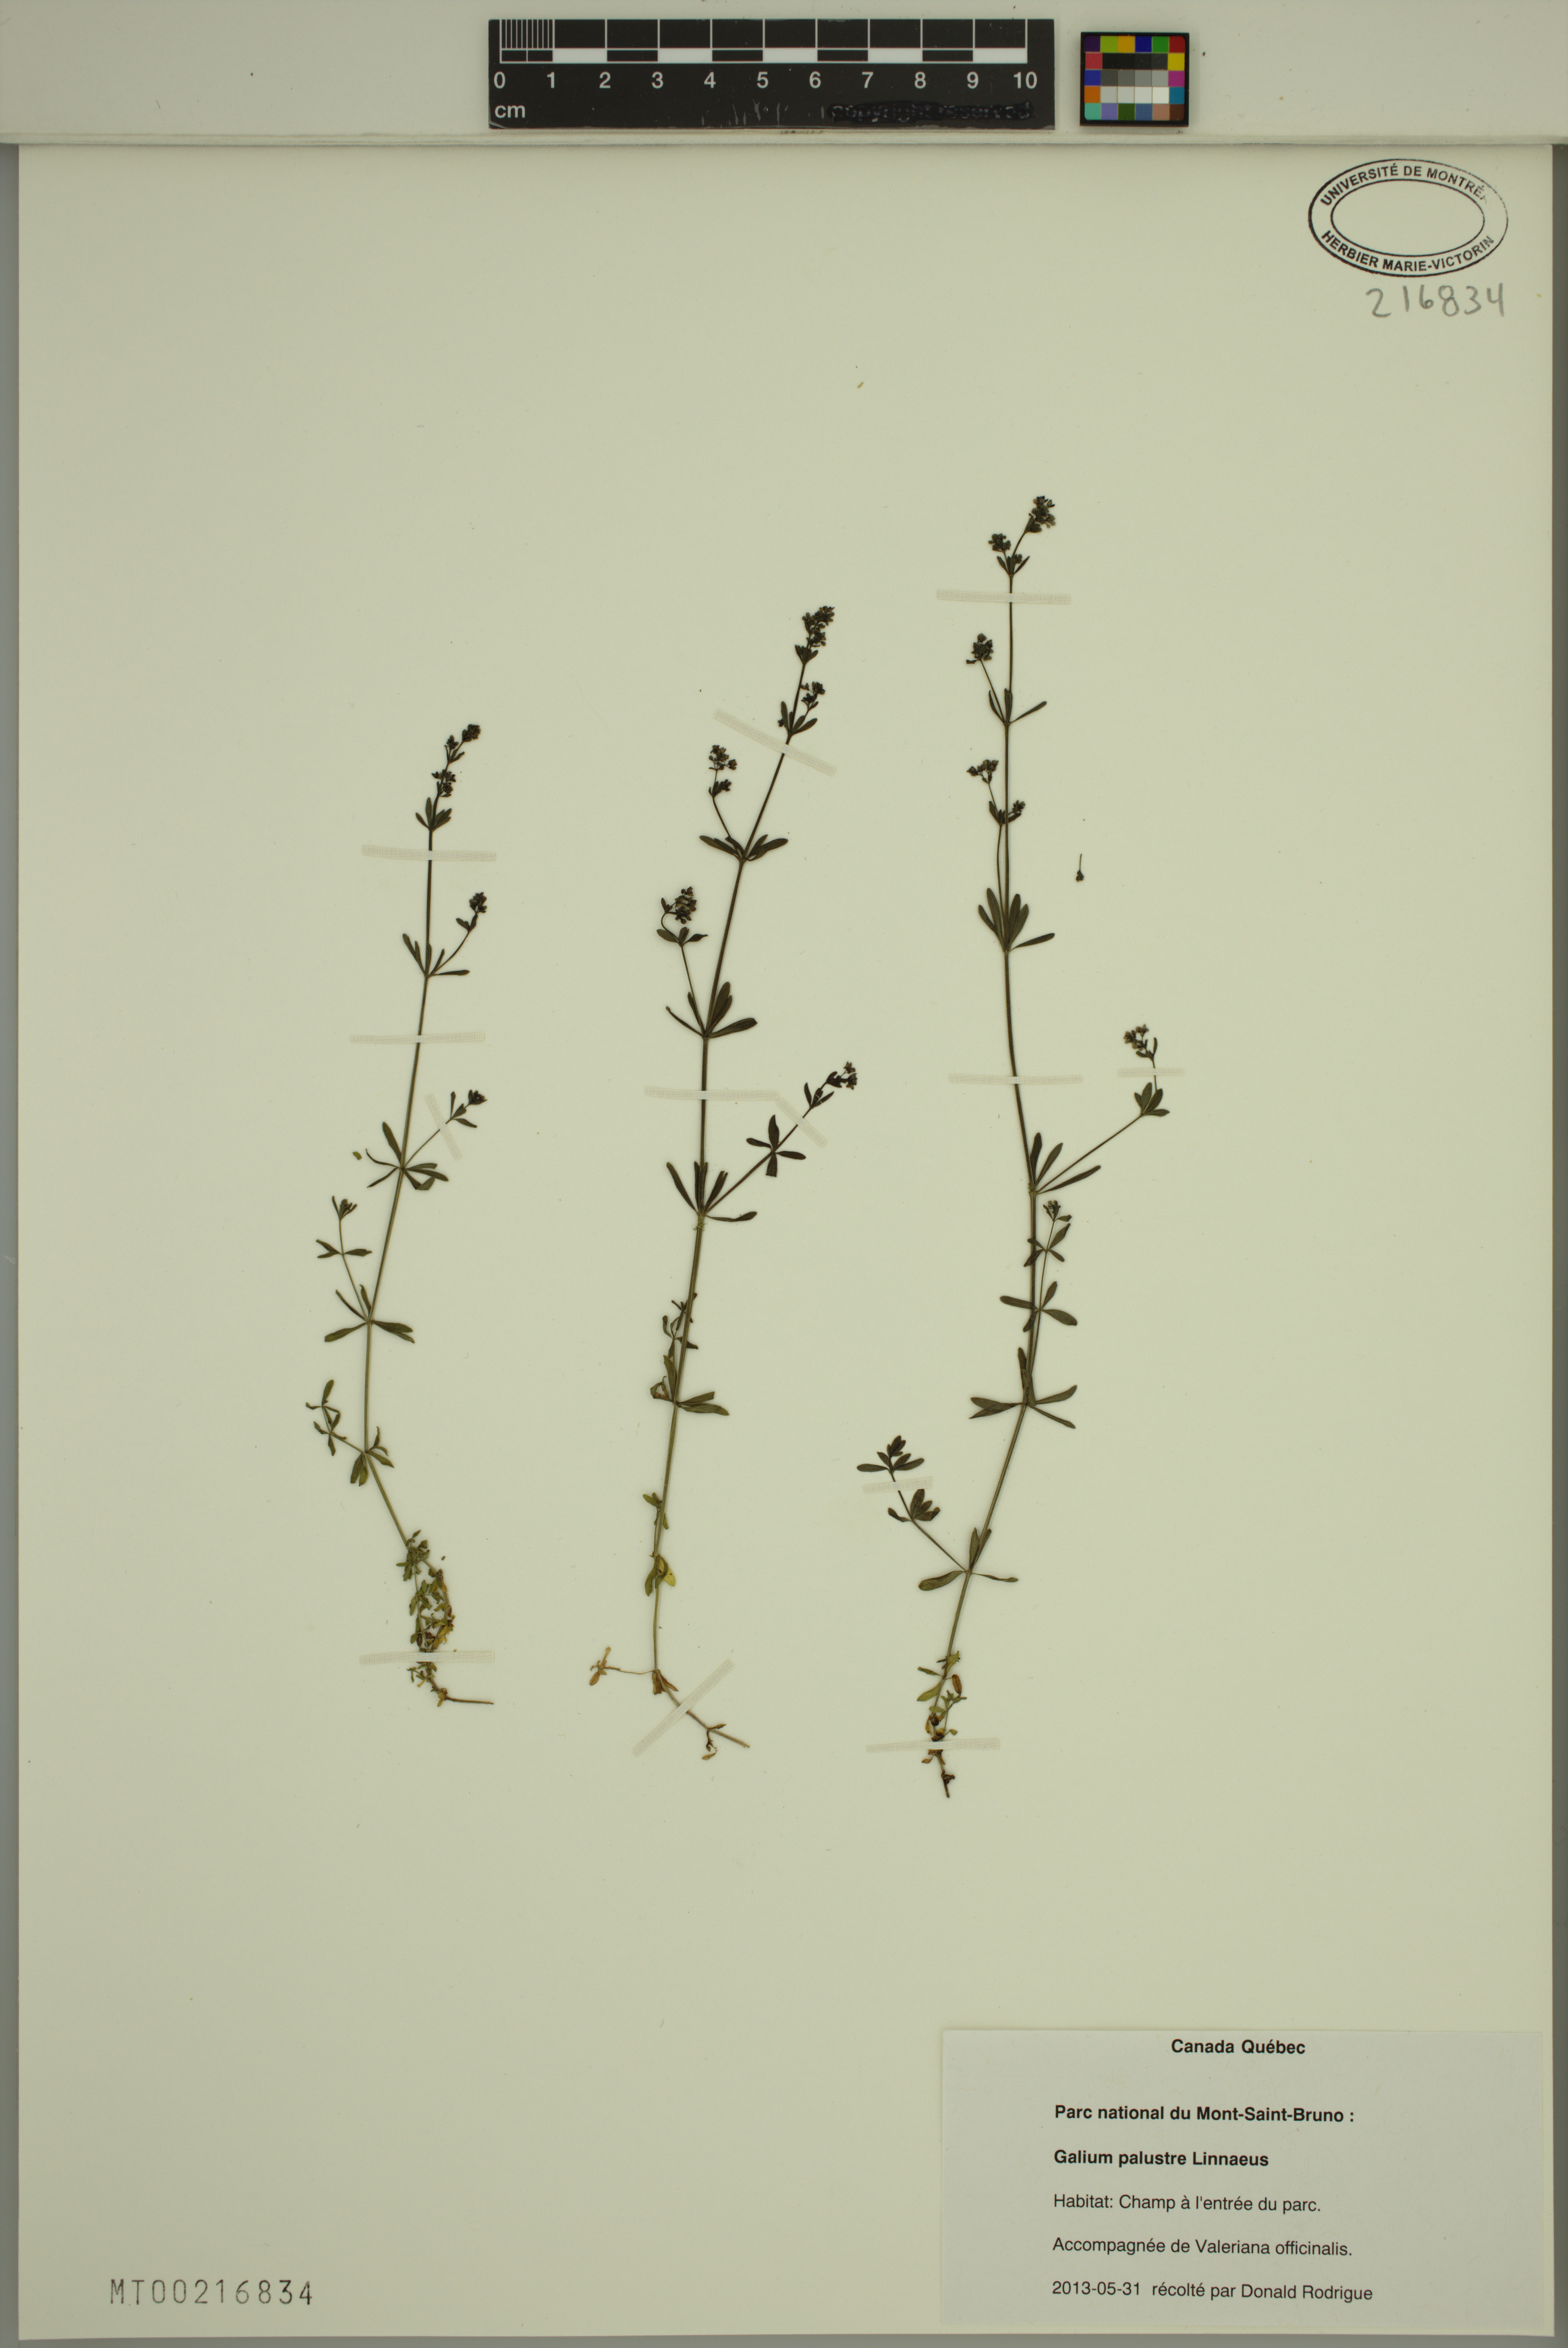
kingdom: Plantae
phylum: Tracheophyta
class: Magnoliopsida
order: Gentianales
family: Rubiaceae
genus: Galium
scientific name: Galium palustre
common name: Common marsh-bedstraw
